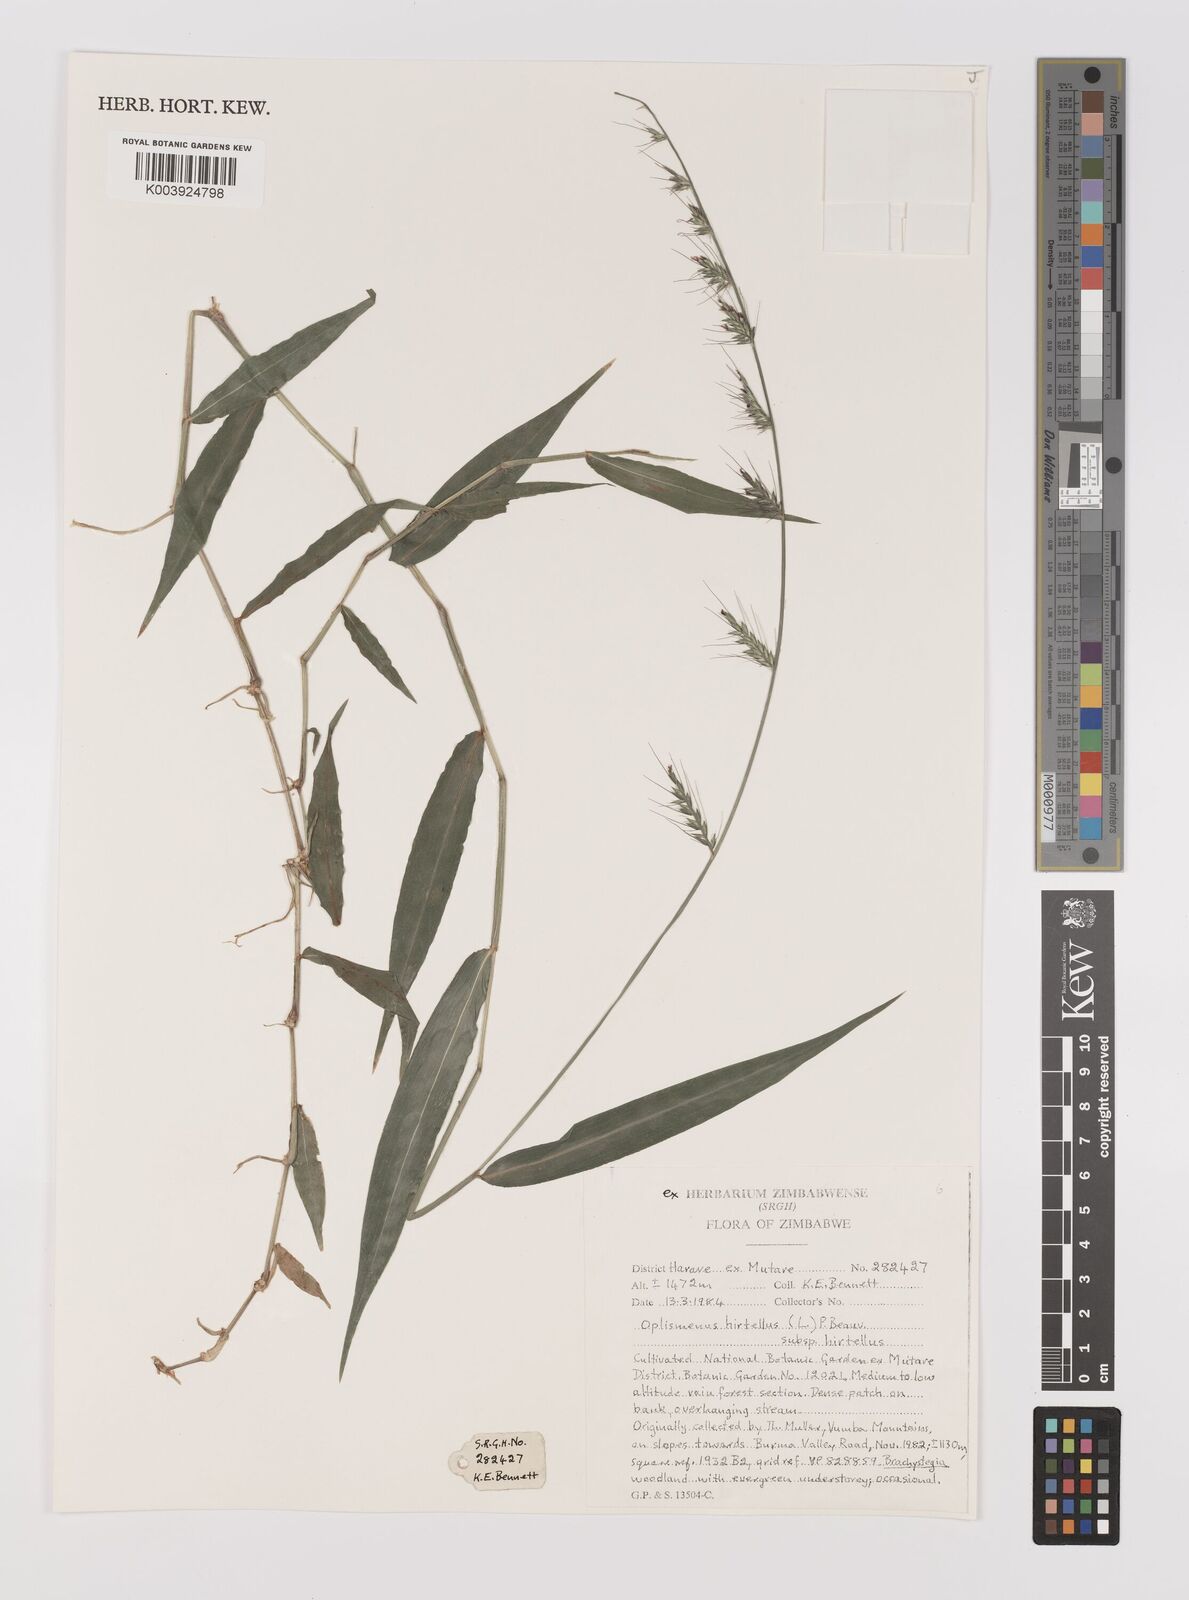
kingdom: Plantae
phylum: Tracheophyta
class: Liliopsida
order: Poales
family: Poaceae
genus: Oplismenus
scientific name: Oplismenus hirtellus
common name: Basketgrass
